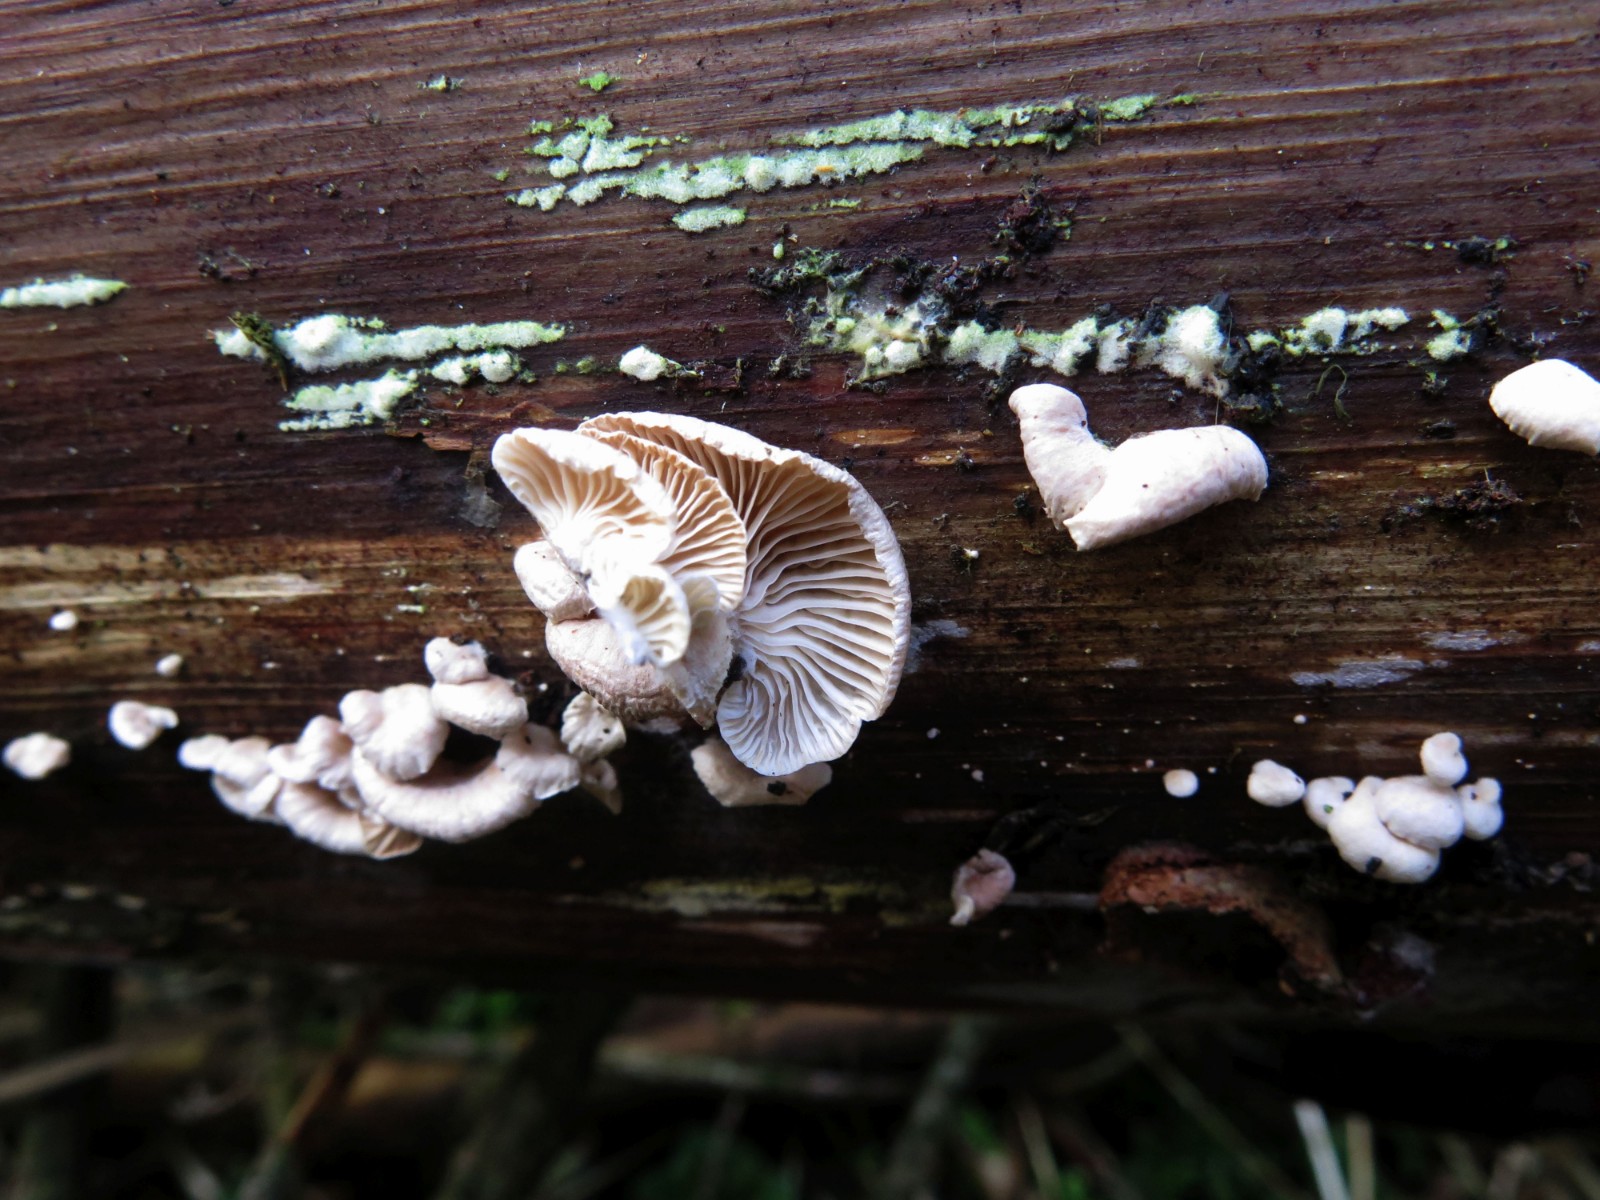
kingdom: Fungi
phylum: Basidiomycota
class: Agaricomycetes
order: Agaricales
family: Mycenaceae
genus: Panellus
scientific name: Panellus mitis
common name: mild epaulethat
